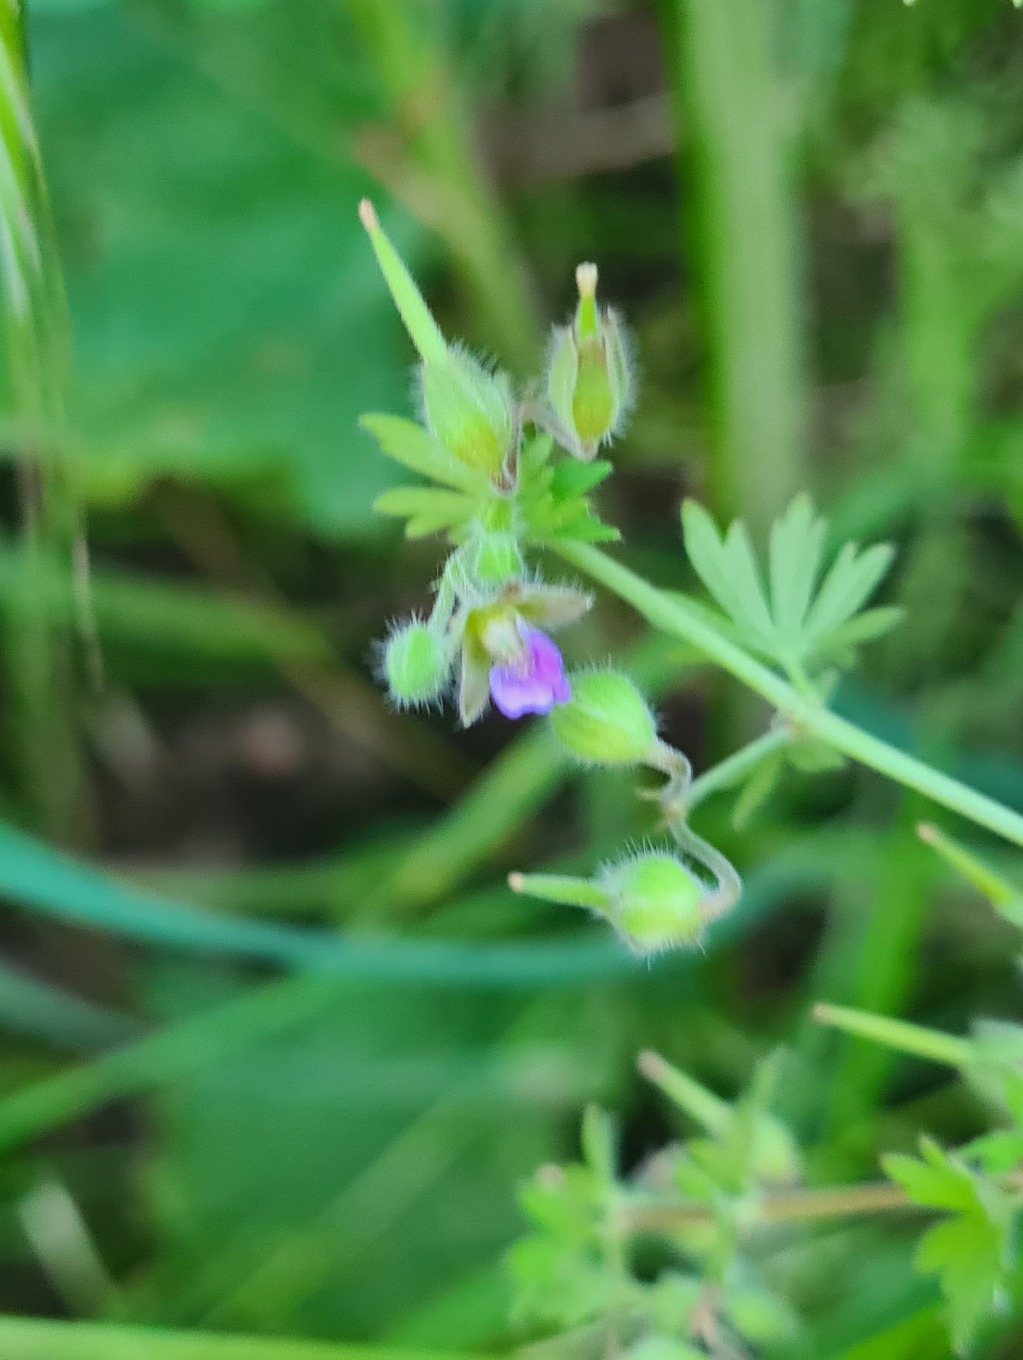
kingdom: Plantae
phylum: Tracheophyta
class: Magnoliopsida
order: Geraniales
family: Geraniaceae
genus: Geranium
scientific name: Geranium pusillum
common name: Liden storkenæb
